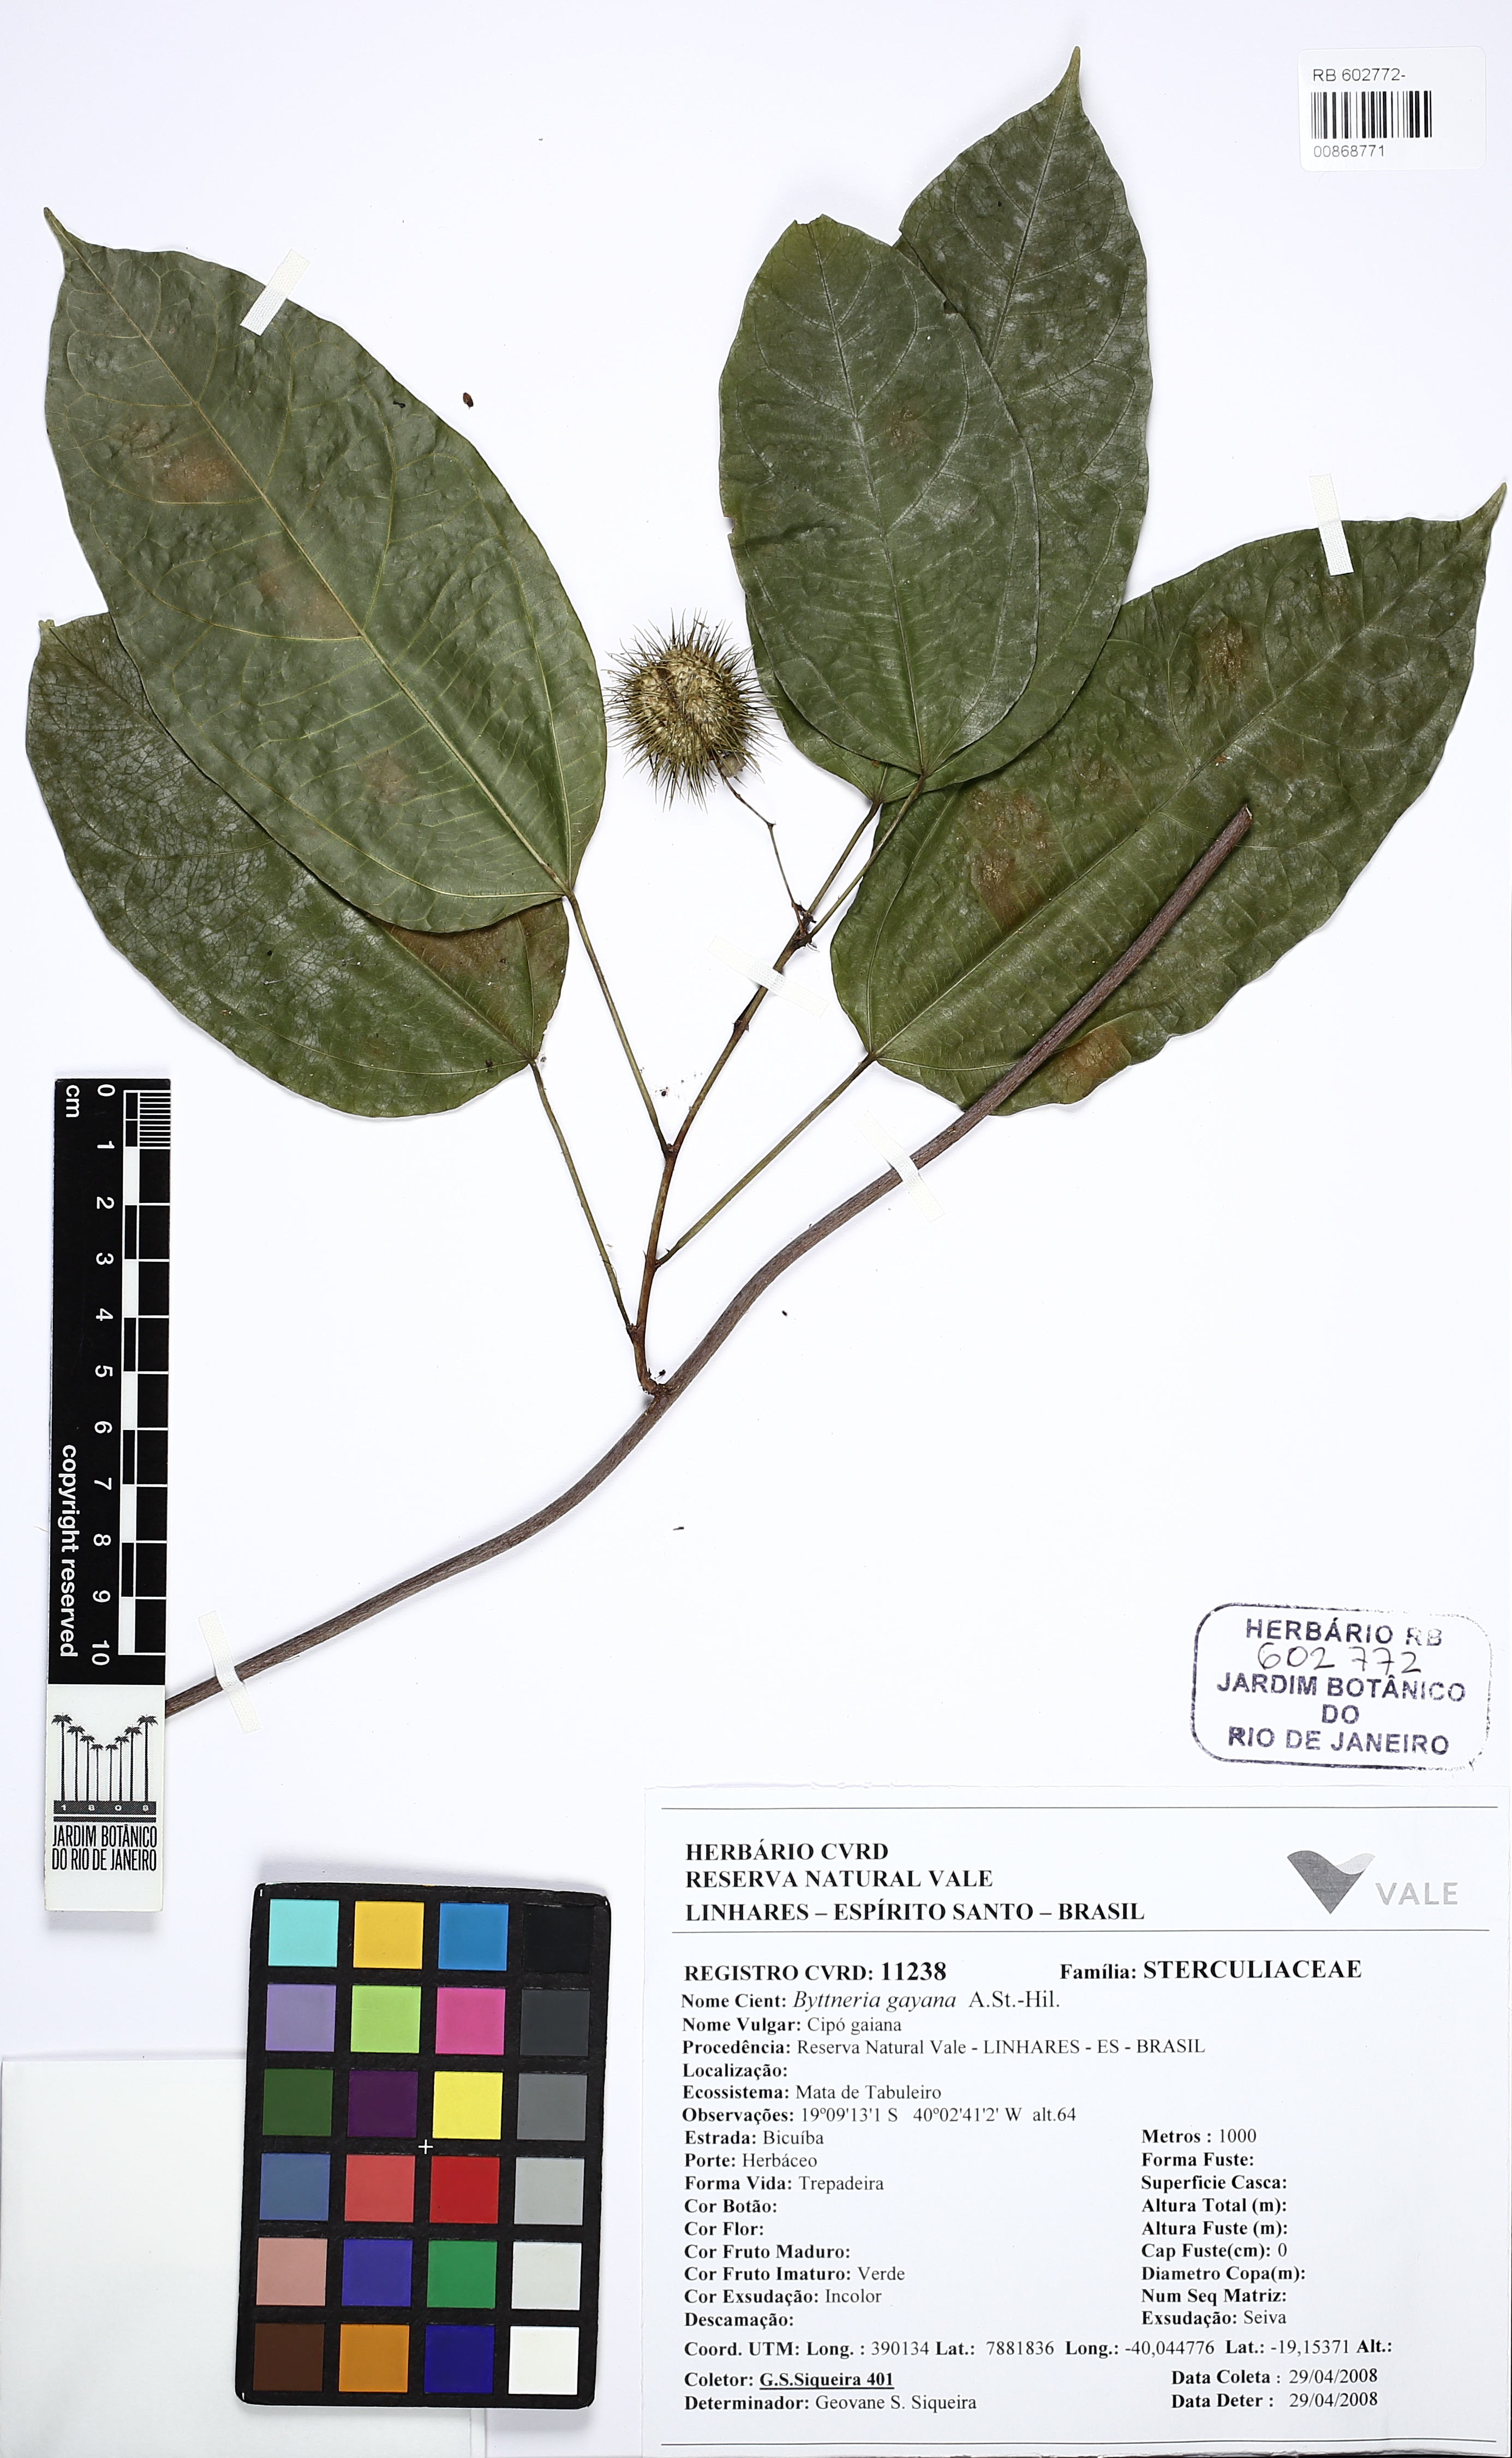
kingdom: Plantae
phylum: Tracheophyta
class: Magnoliopsida
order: Malvales
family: Malvaceae
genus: Byttneria
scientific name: Byttneria gayana
